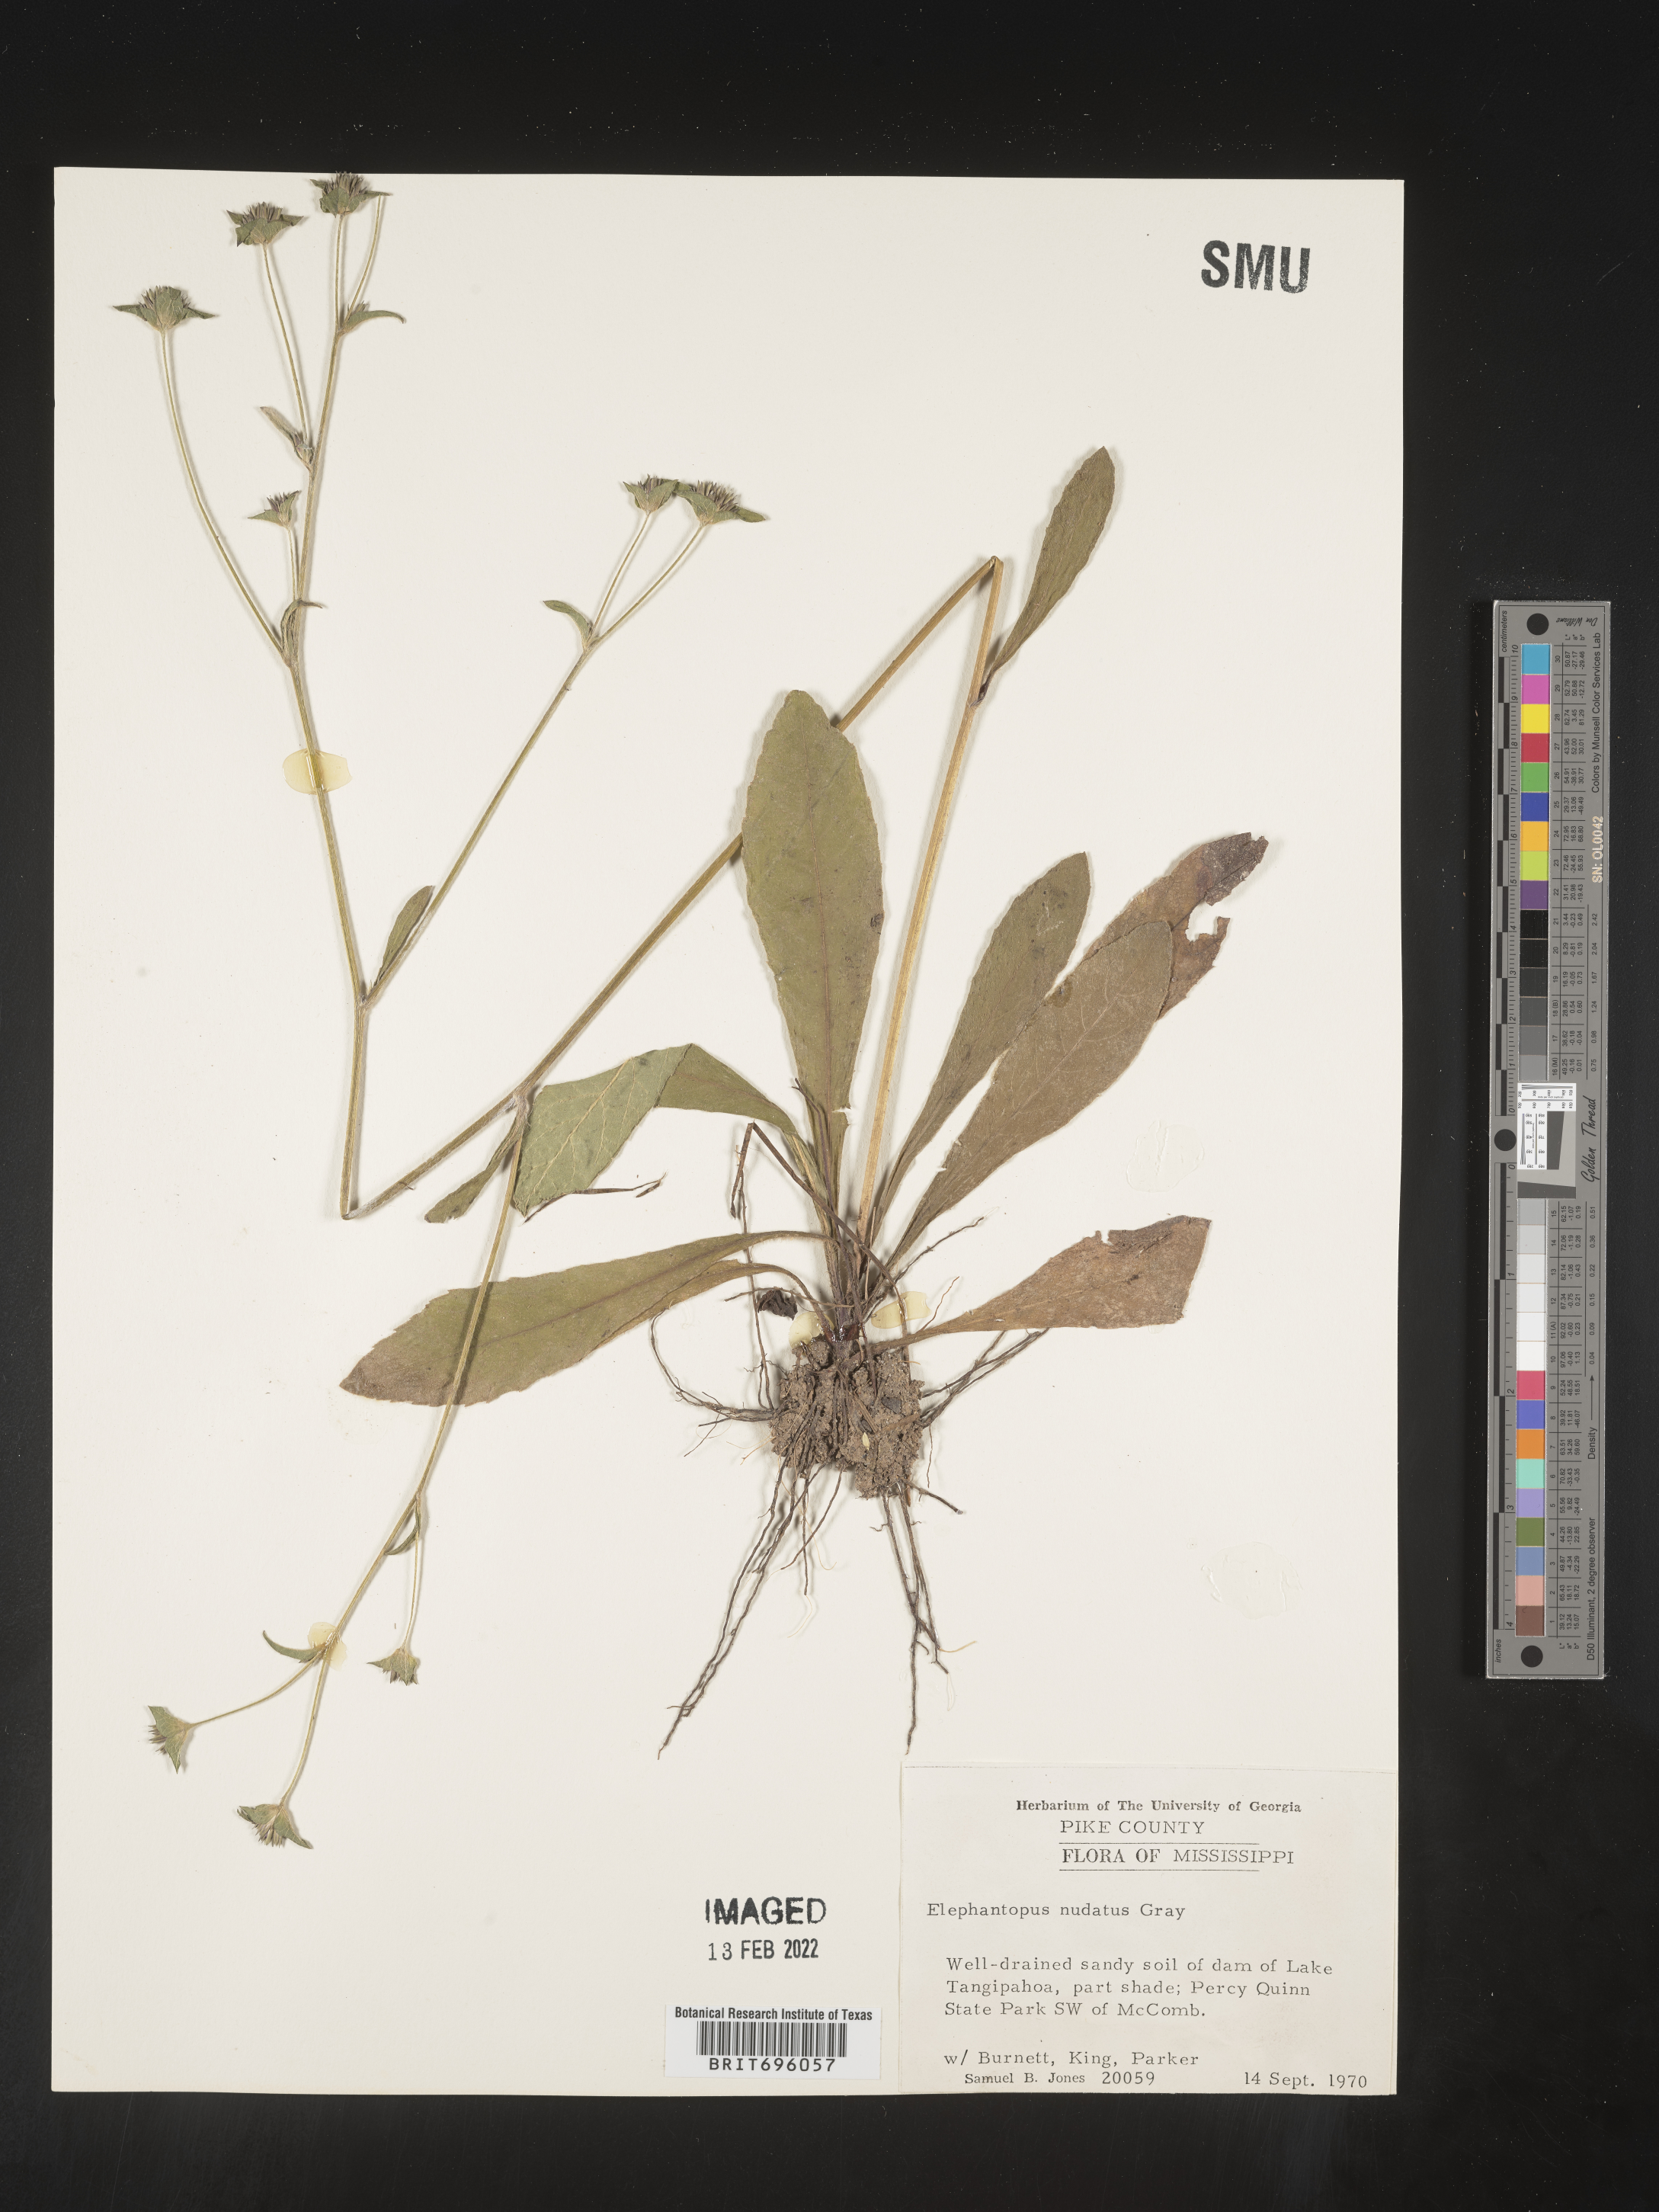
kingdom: Plantae
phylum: Tracheophyta
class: Magnoliopsida
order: Asterales
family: Asteraceae
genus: Elephantopus
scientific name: Elephantopus nudatus
